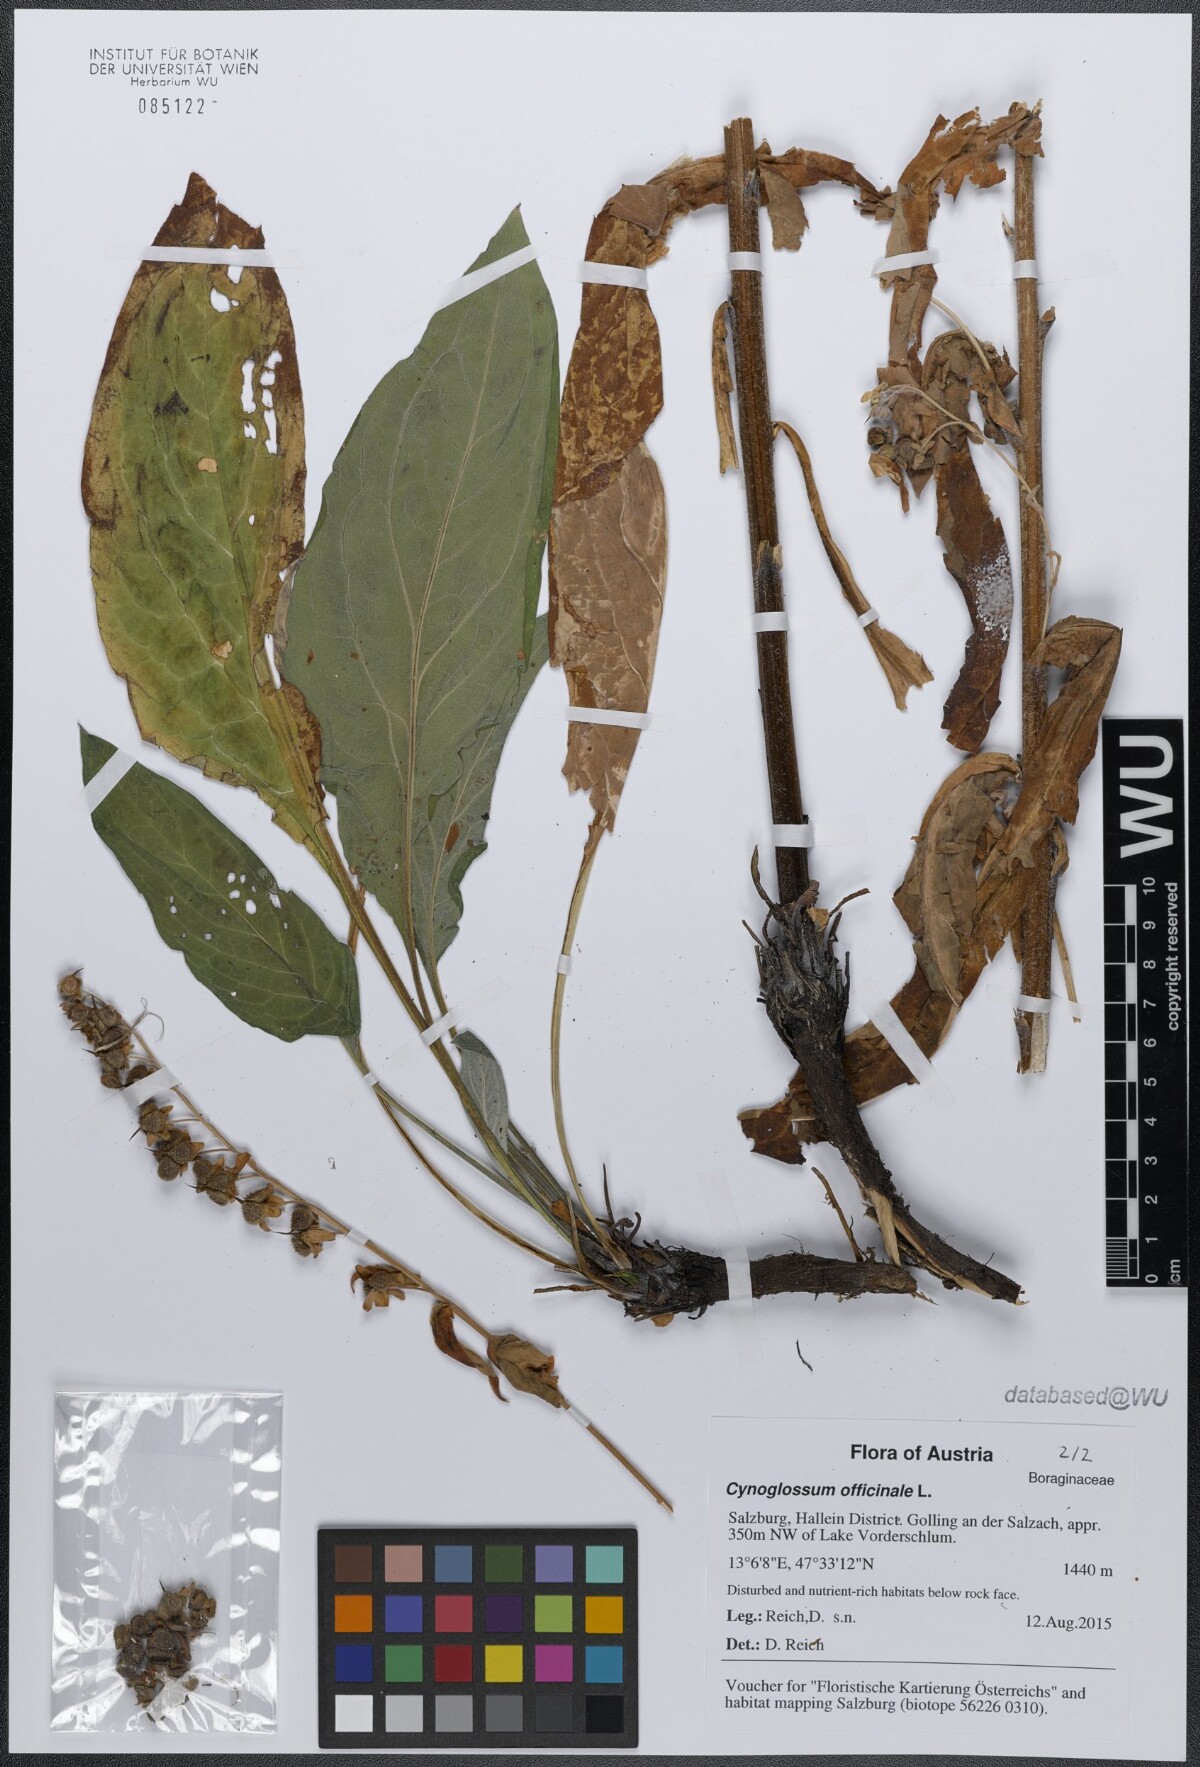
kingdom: Plantae
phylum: Tracheophyta
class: Magnoliopsida
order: Boraginales
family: Boraginaceae
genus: Cynoglossum
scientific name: Cynoglossum officinale
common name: Hound's-tongue
